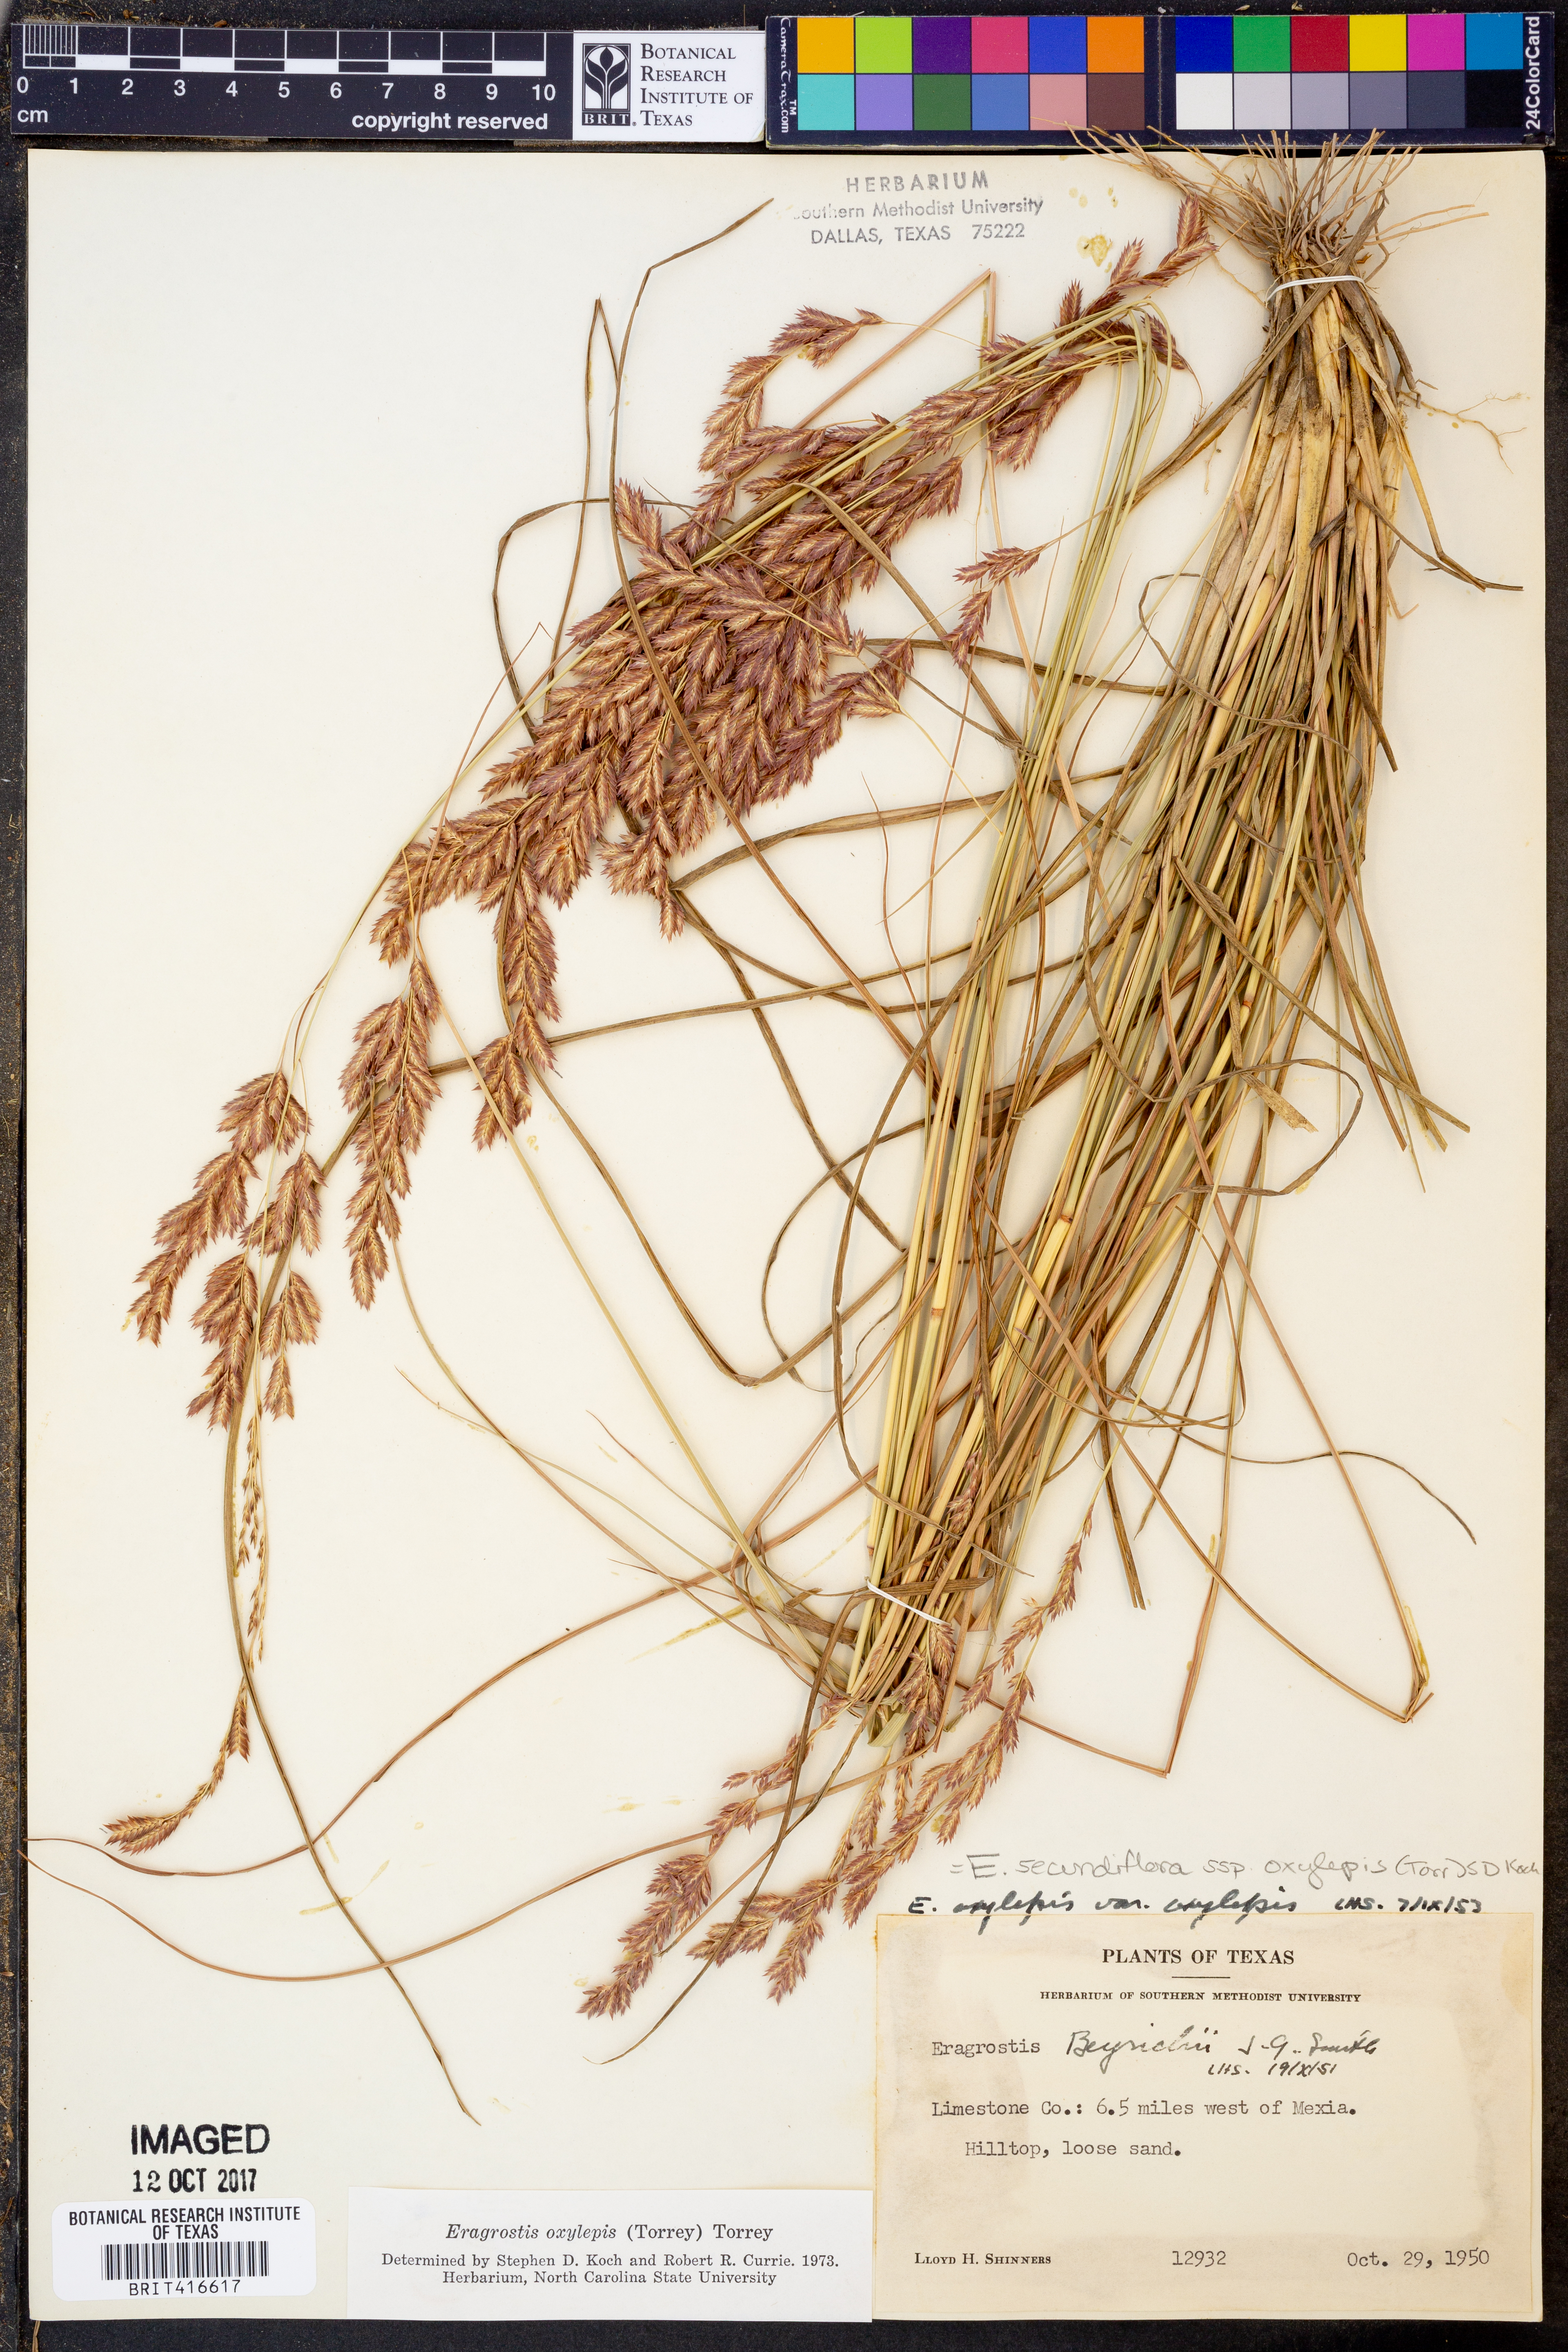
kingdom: Plantae
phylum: Tracheophyta
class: Liliopsida
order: Poales
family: Poaceae
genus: Eragrostis
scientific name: Eragrostis secundiflora
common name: Red love grass
